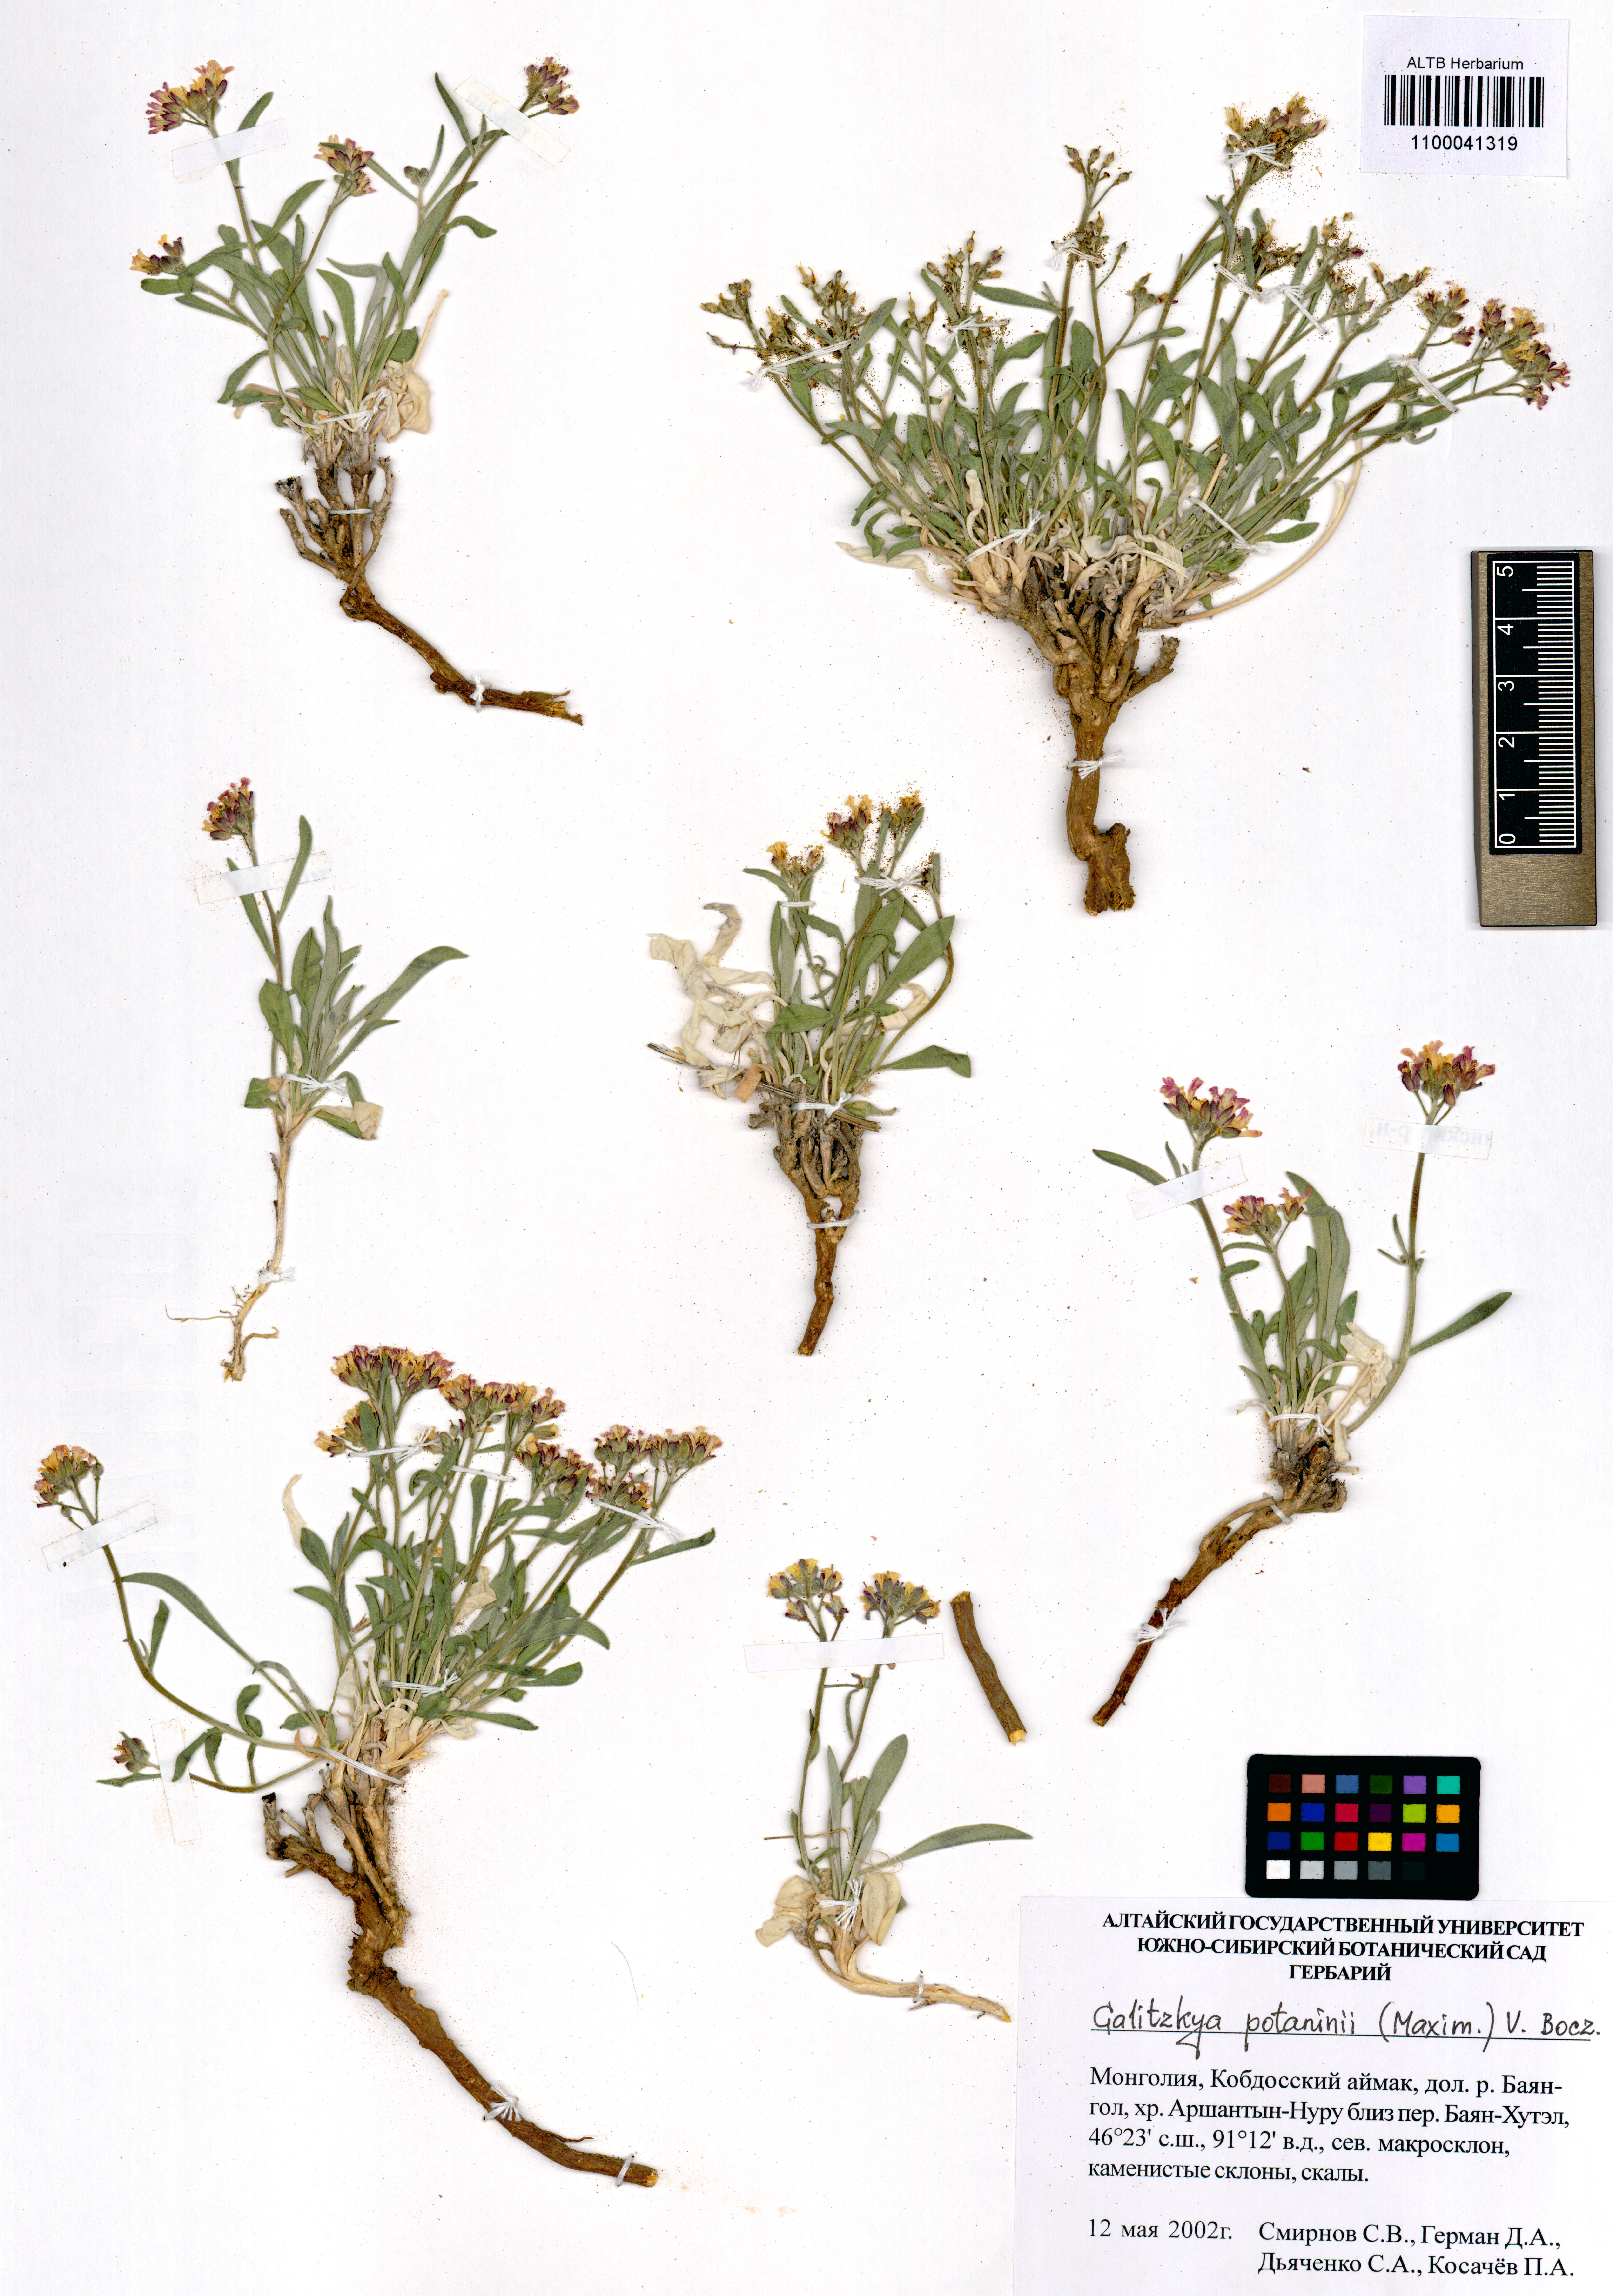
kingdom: Plantae
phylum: Tracheophyta
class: Magnoliopsida
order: Brassicales
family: Brassicaceae
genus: Galitzkya
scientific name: Galitzkya potaninii
